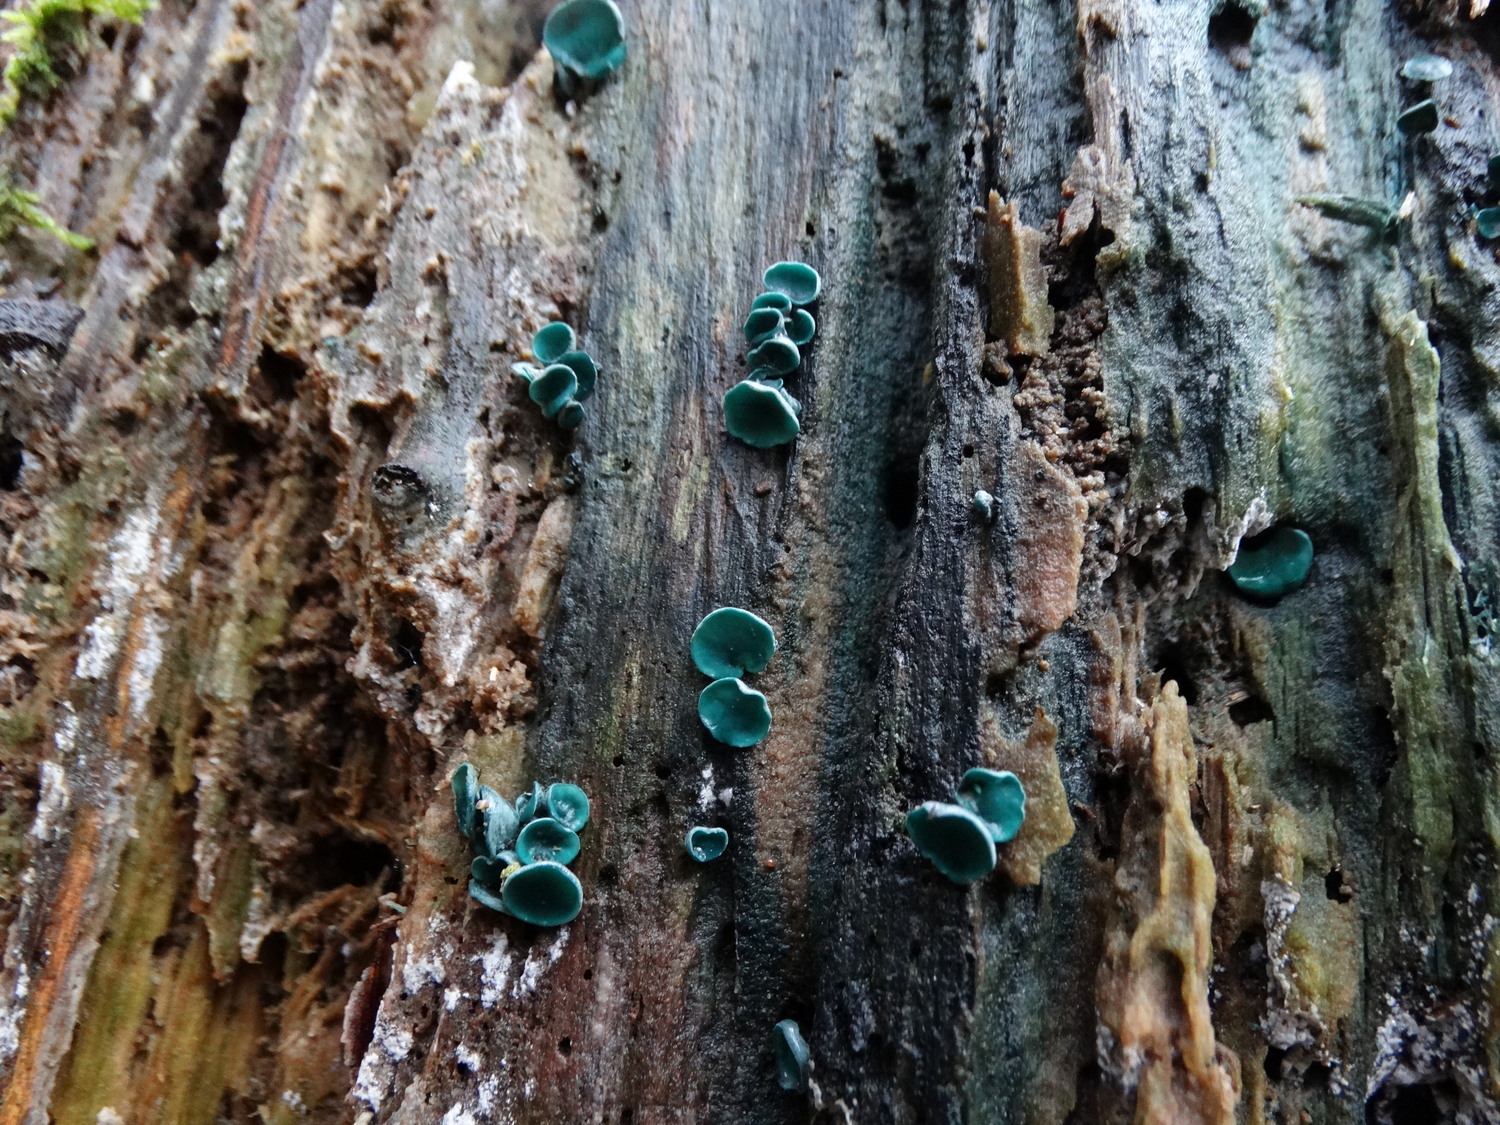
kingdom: Fungi
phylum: Ascomycota
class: Leotiomycetes
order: Helotiales
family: Chlorociboriaceae
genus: Chlorociboria
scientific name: Chlorociboria aeruginascens
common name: almindelig grønskive
